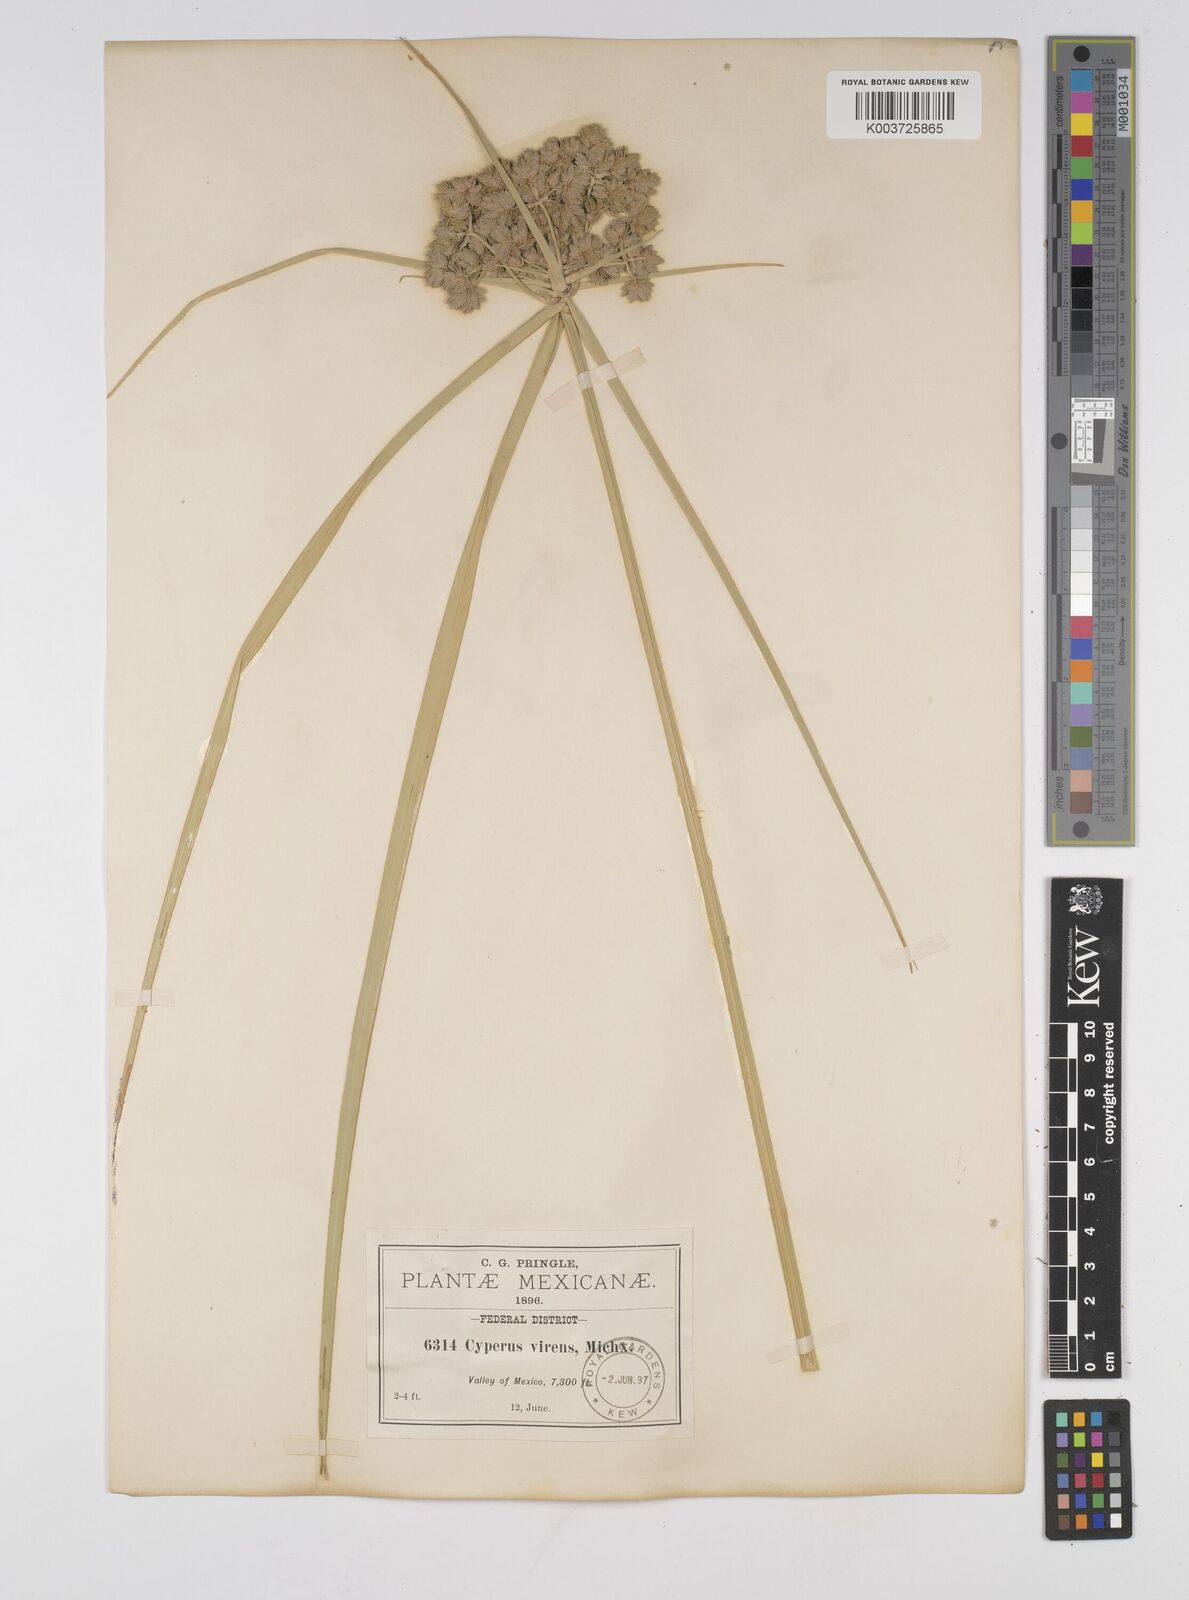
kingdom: Plantae
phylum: Tracheophyta
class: Liliopsida
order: Poales
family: Cyperaceae
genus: Cyperus
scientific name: Cyperus virens
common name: Green flatsedge
